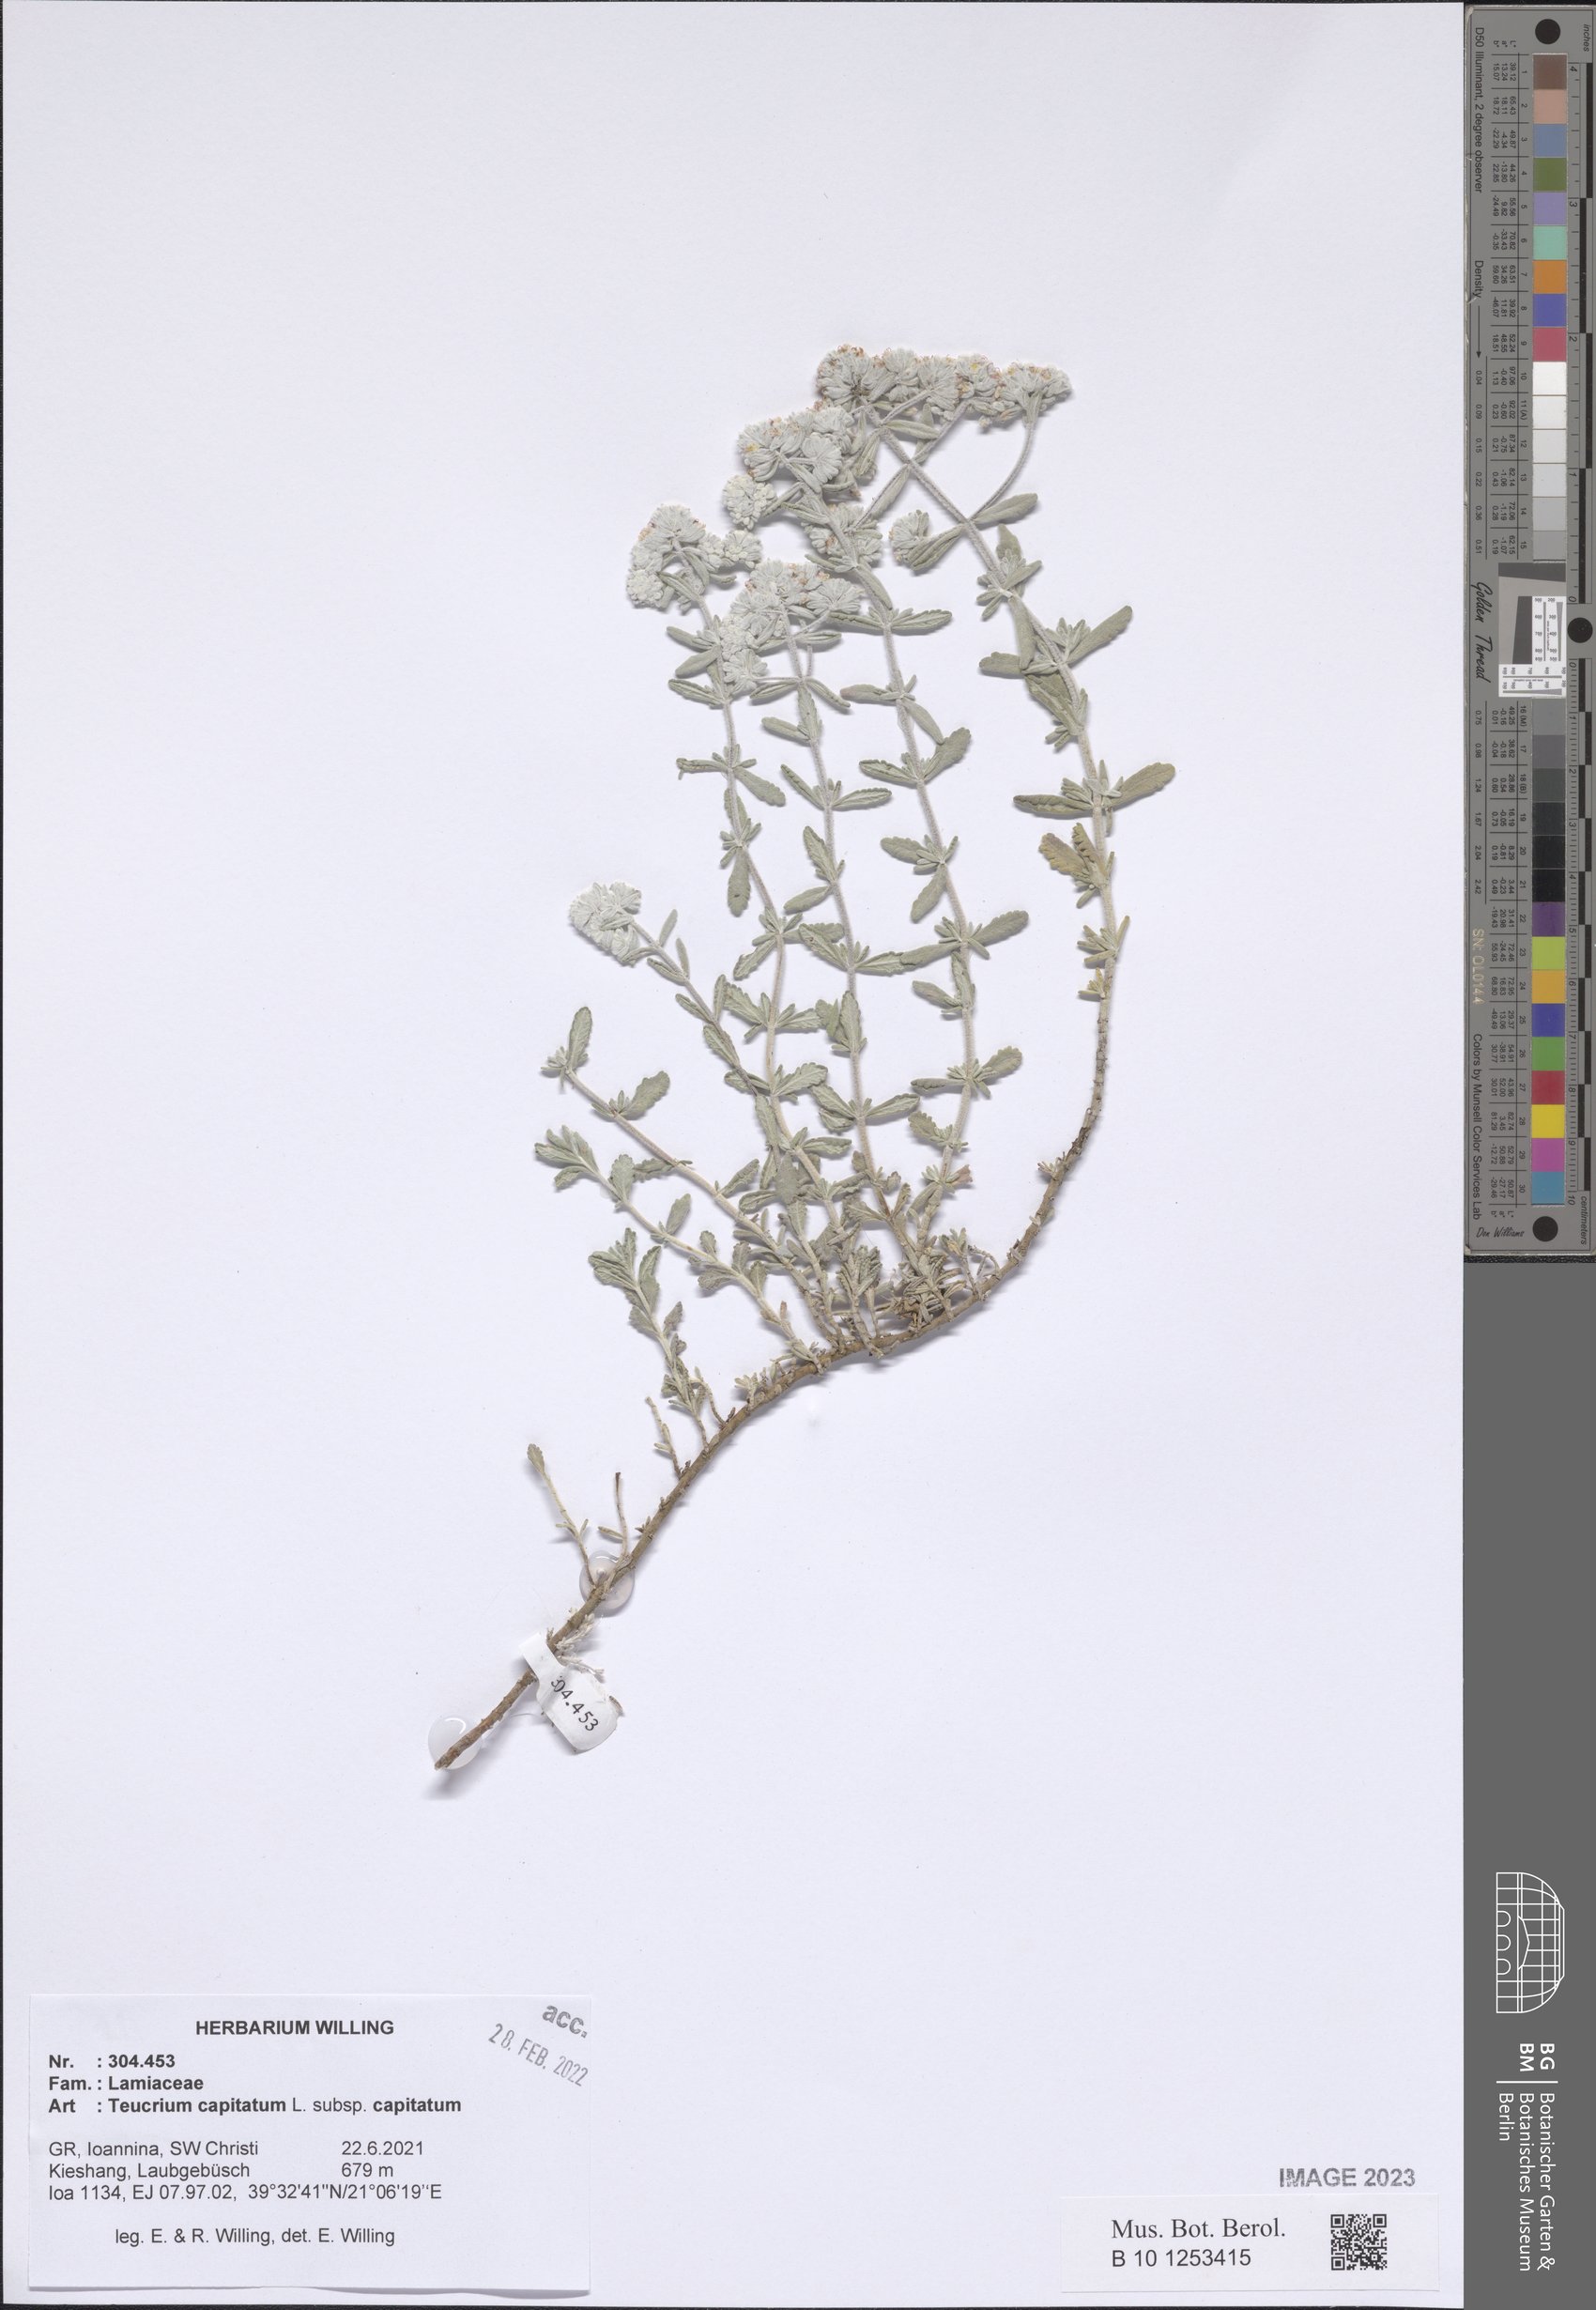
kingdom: Plantae
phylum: Tracheophyta
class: Magnoliopsida
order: Lamiales
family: Lamiaceae
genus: Teucrium
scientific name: Teucrium capitatum
